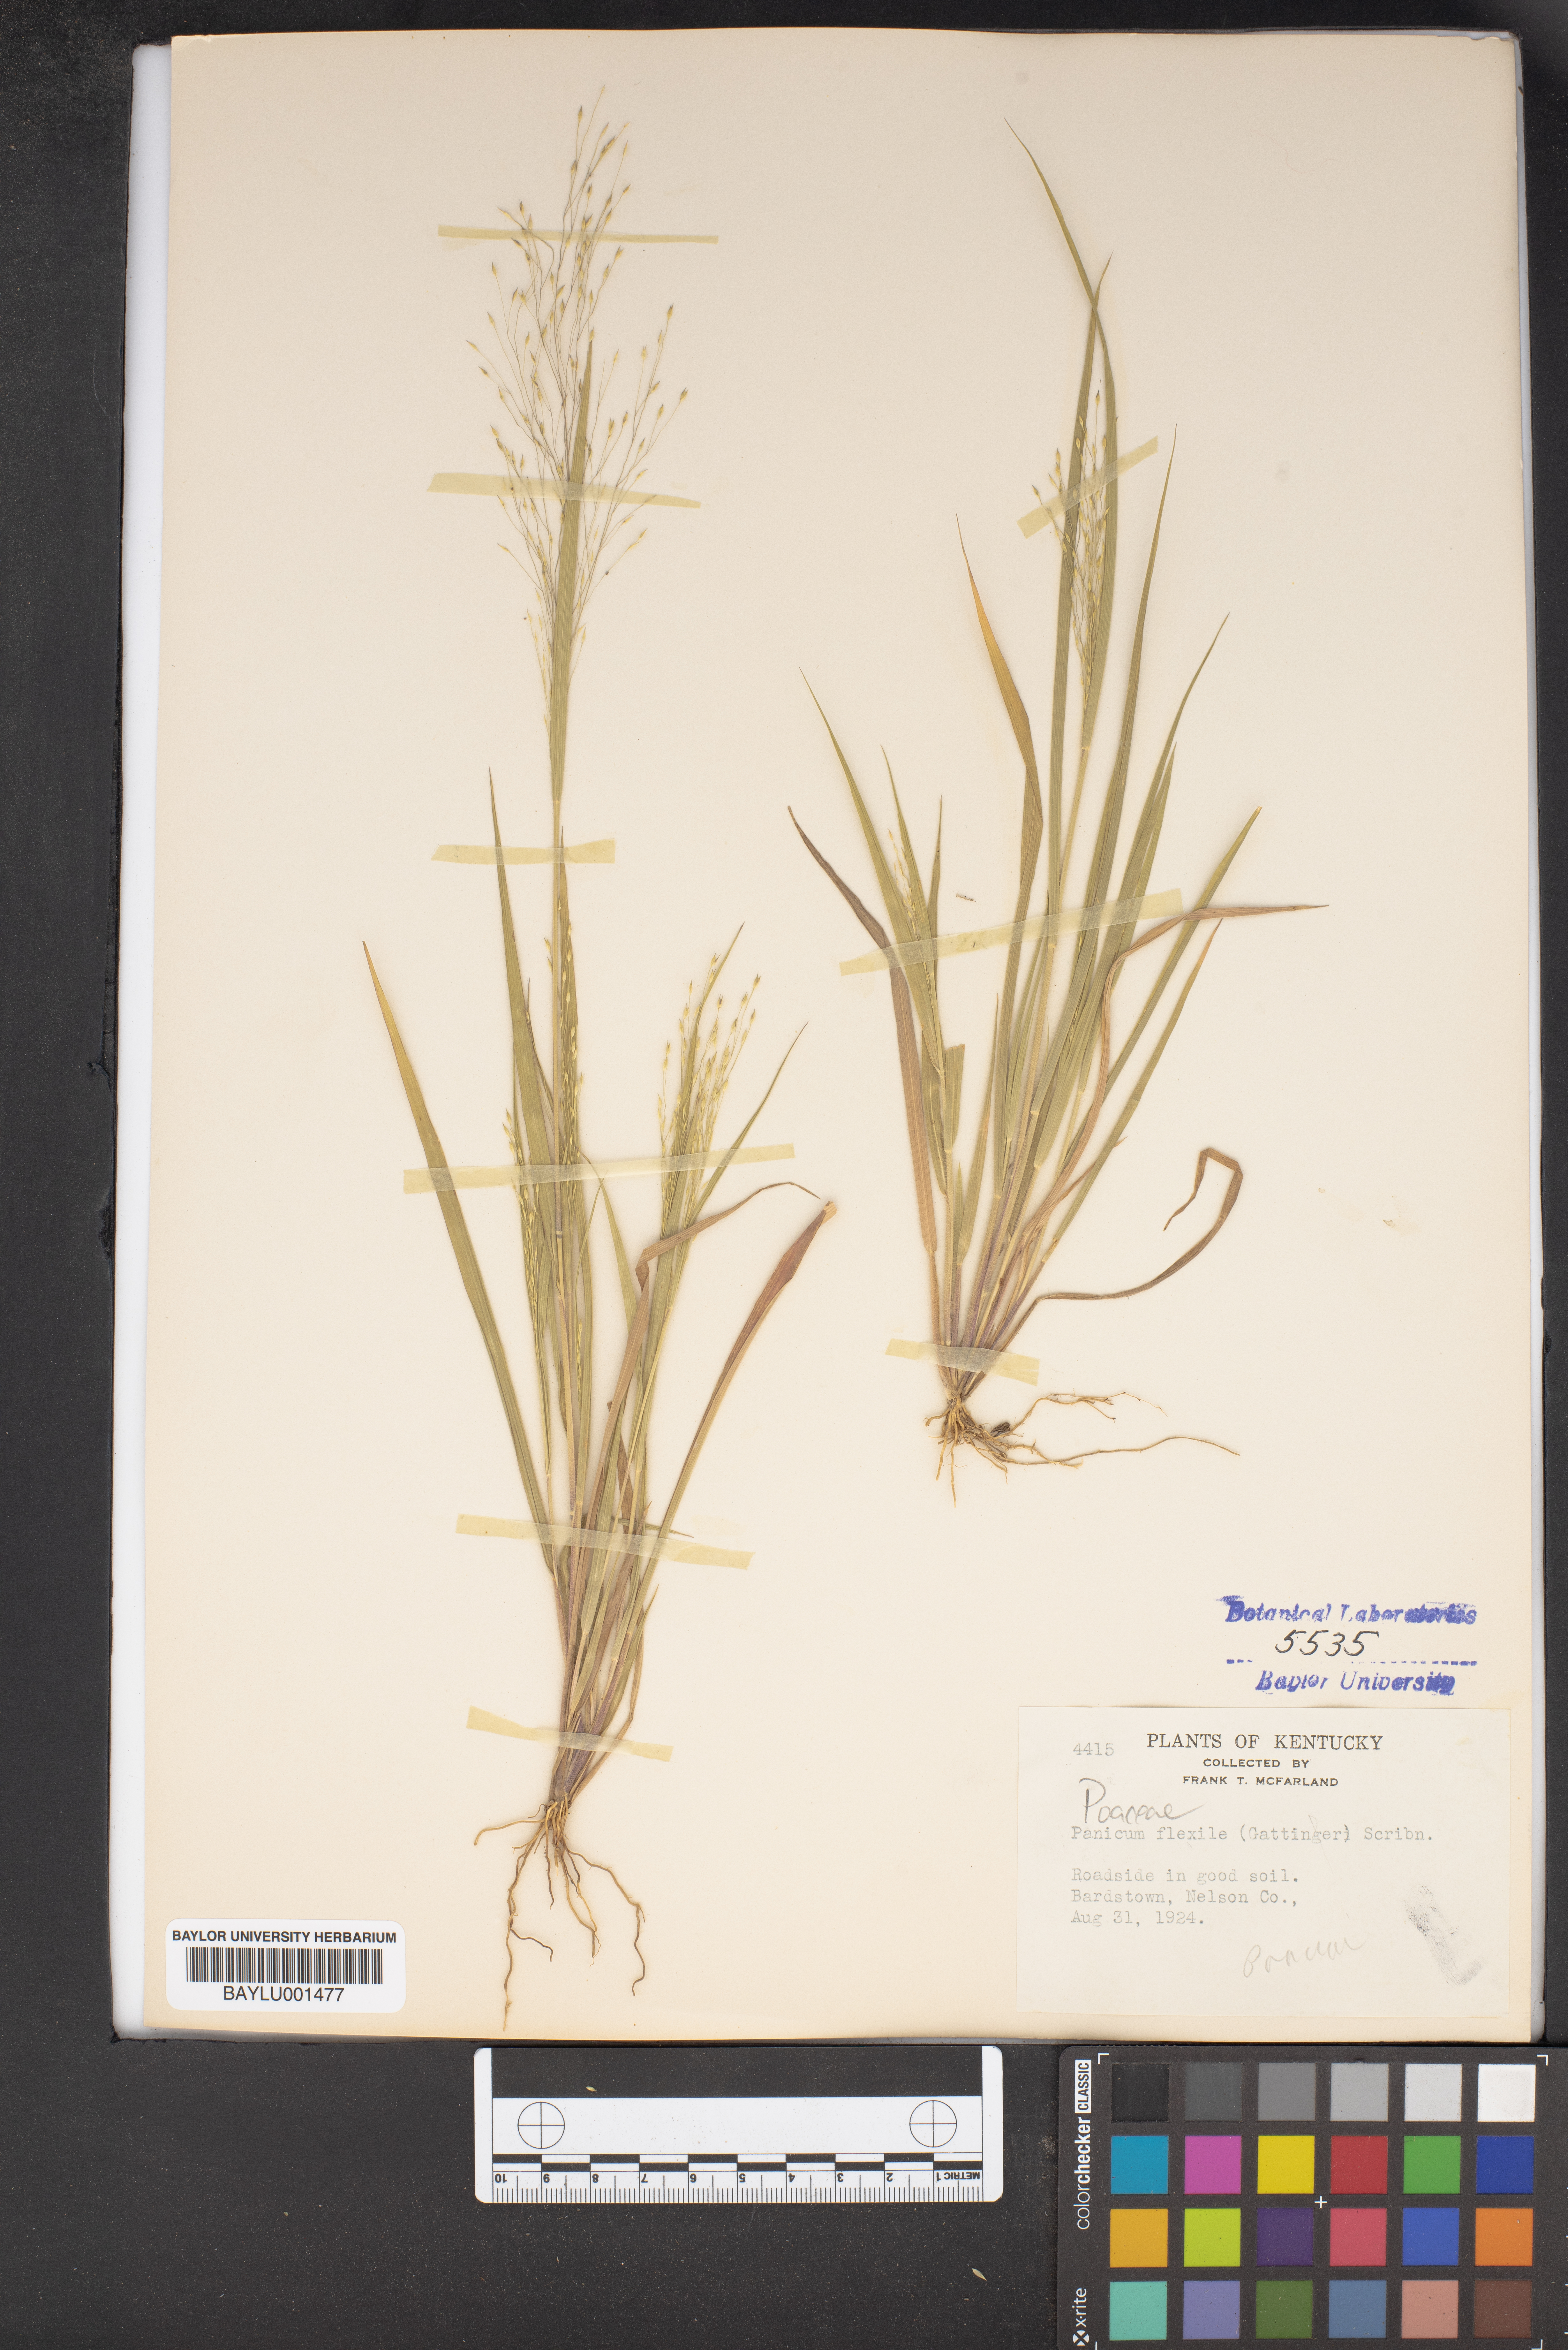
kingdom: Plantae
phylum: Tracheophyta
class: Liliopsida
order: Poales
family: Poaceae
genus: Panicum
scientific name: Panicum flexile
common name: Wiry panicgrass
